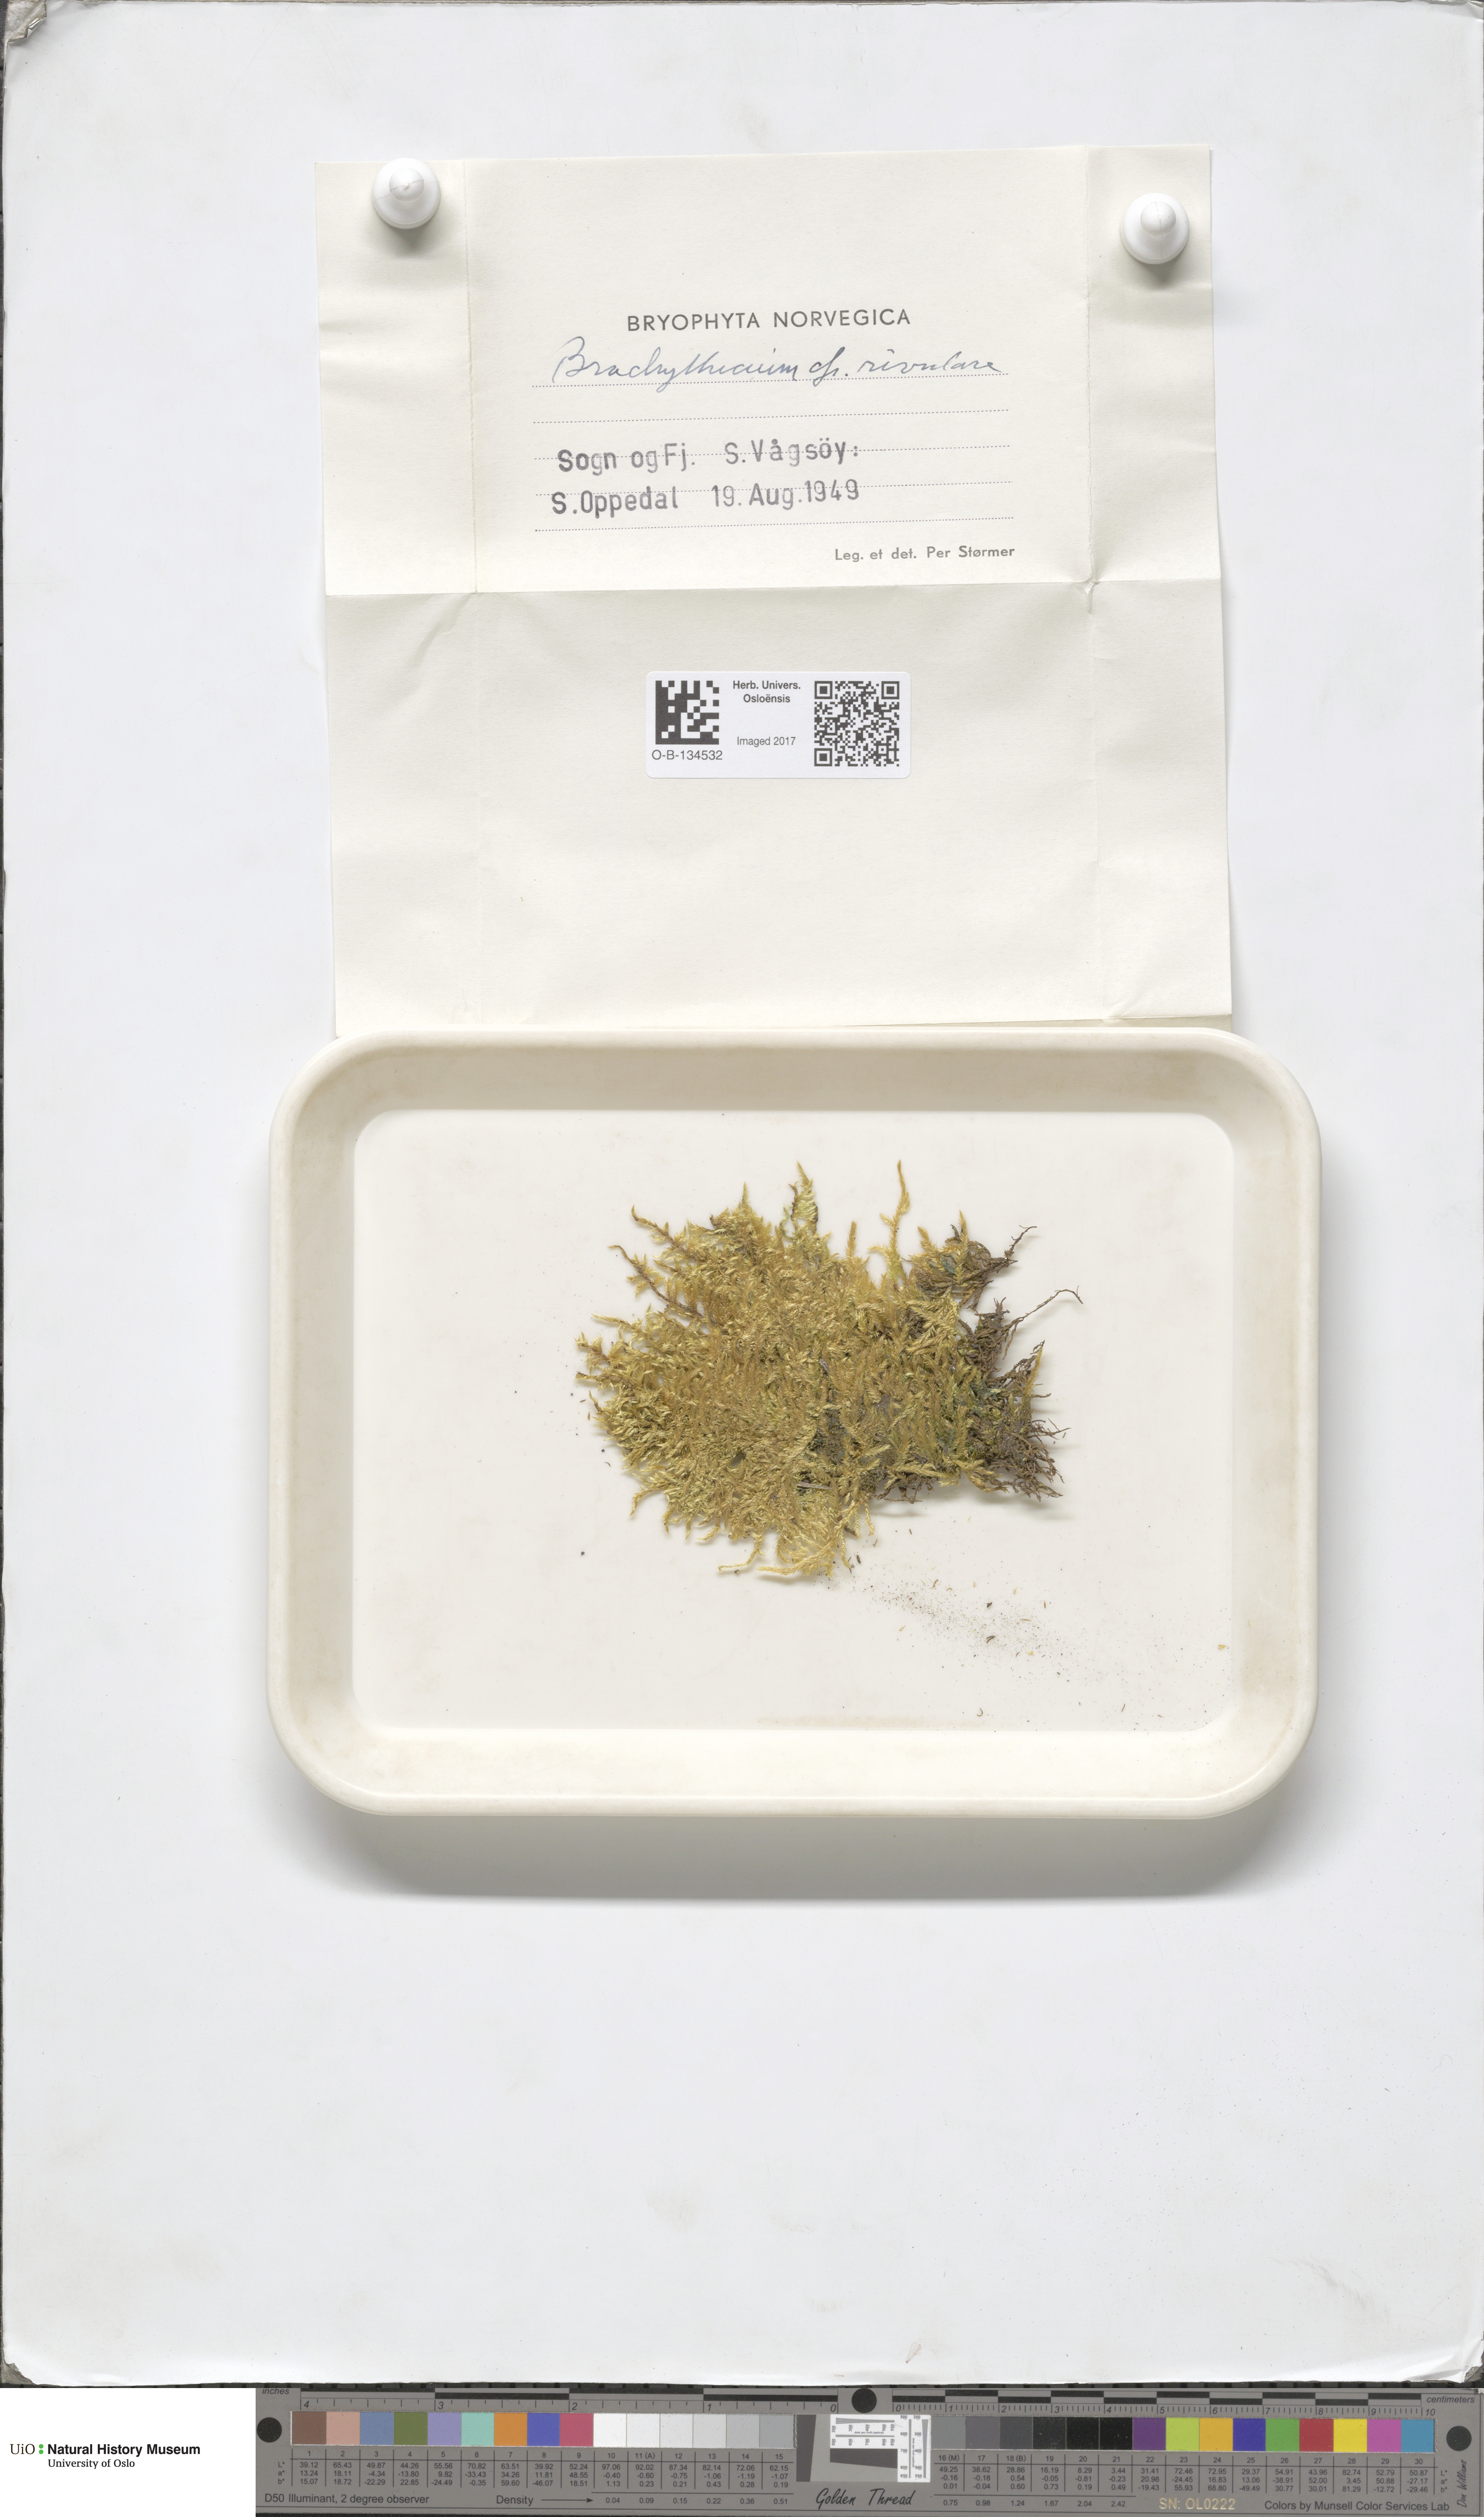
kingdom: Plantae
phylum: Bryophyta
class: Bryopsida
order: Hypnales
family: Brachytheciaceae
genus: Brachythecium
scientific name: Brachythecium rivulare
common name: River ragged moss
